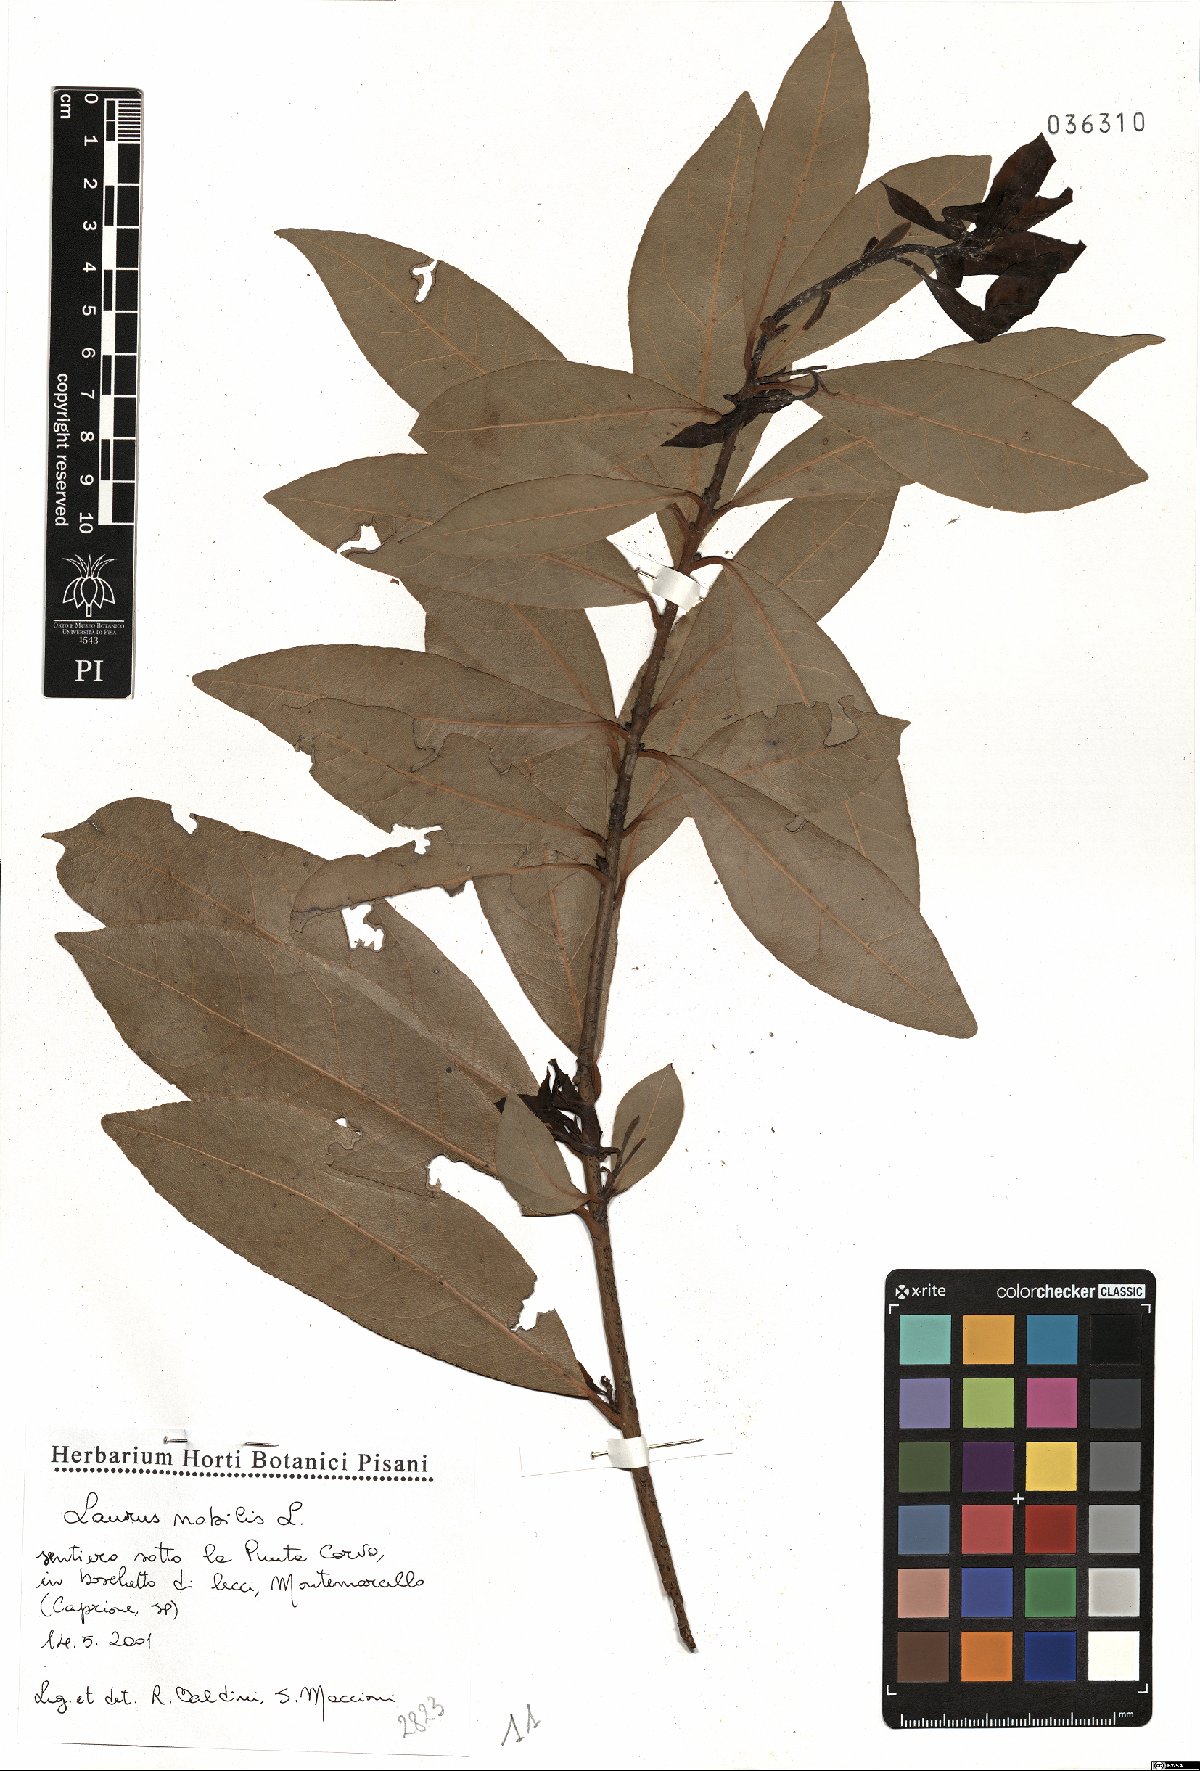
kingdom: Plantae
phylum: Tracheophyta
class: Magnoliopsida
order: Laurales
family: Lauraceae
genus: Laurus
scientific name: Laurus nobilis
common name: Bay
